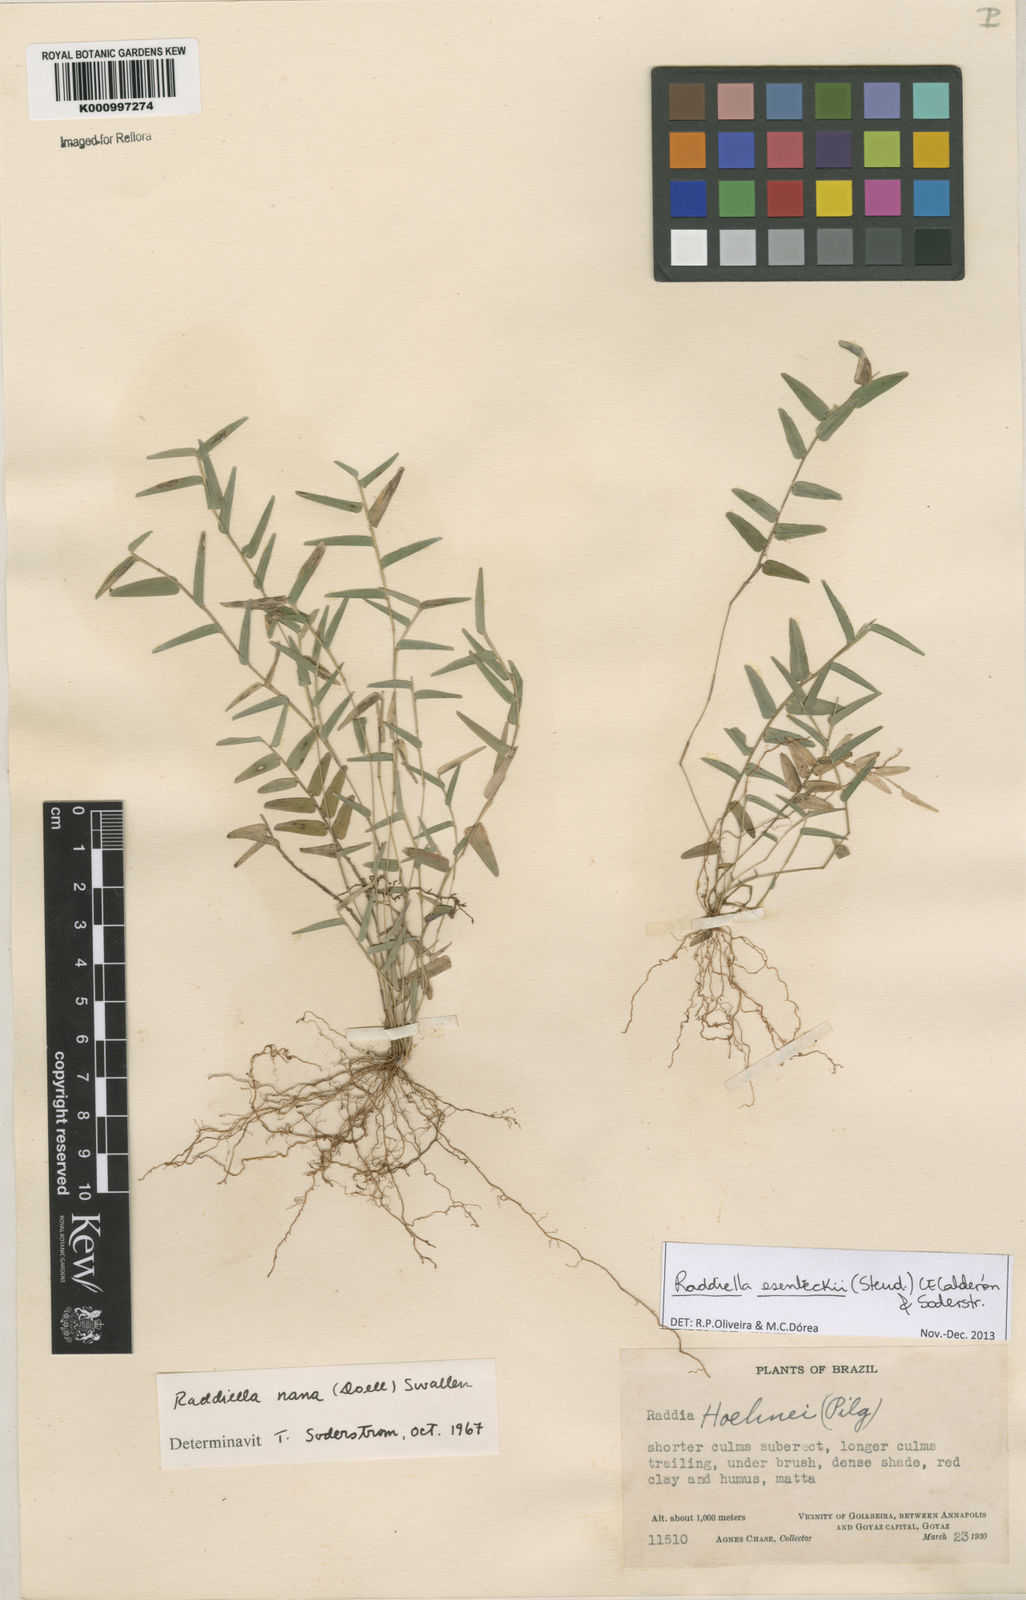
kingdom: Plantae
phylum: Tracheophyta
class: Liliopsida
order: Poales
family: Poaceae
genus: Raddiella
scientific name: Raddiella
